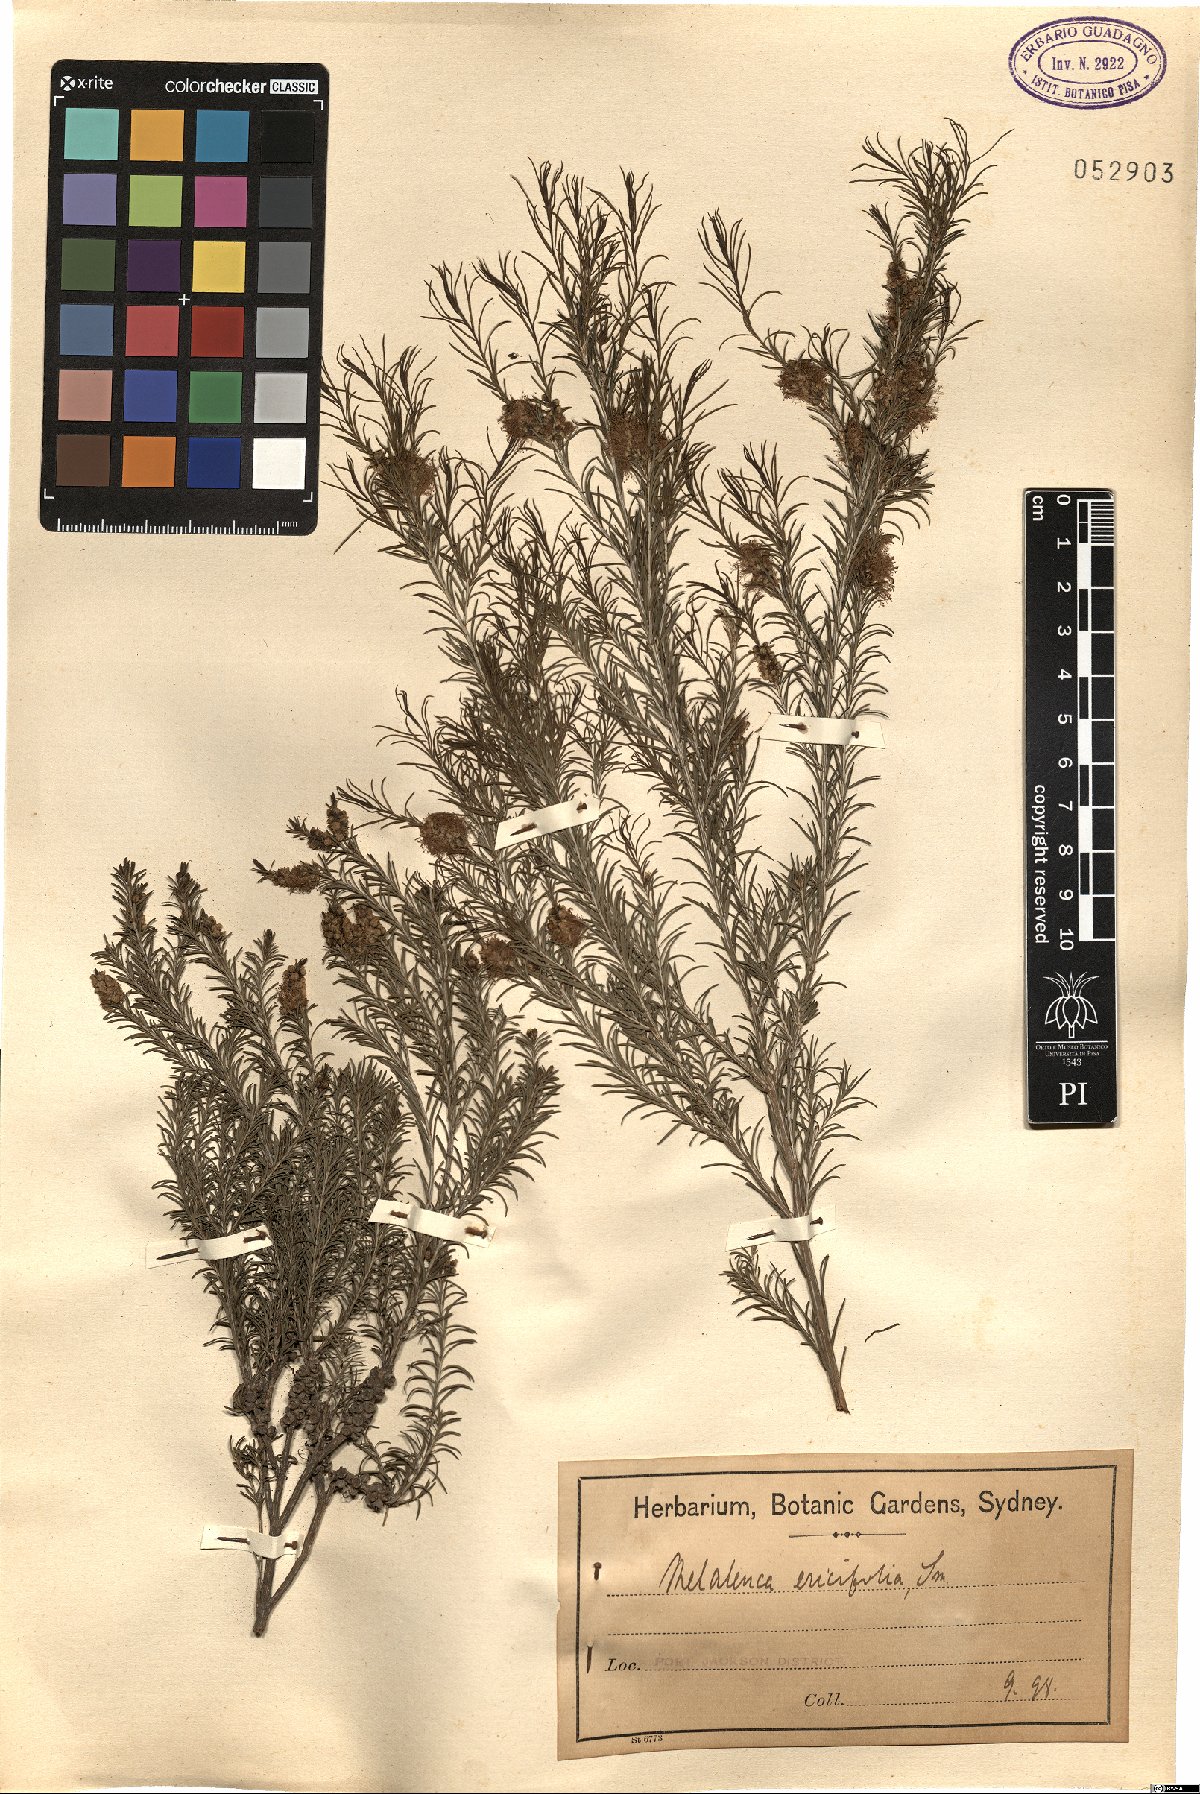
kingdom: Plantae
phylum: Tracheophyta
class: Magnoliopsida
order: Myrtales
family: Myrtaceae
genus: Melaleuca
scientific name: Melaleuca armillaris
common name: Bracelet honey myrtle
